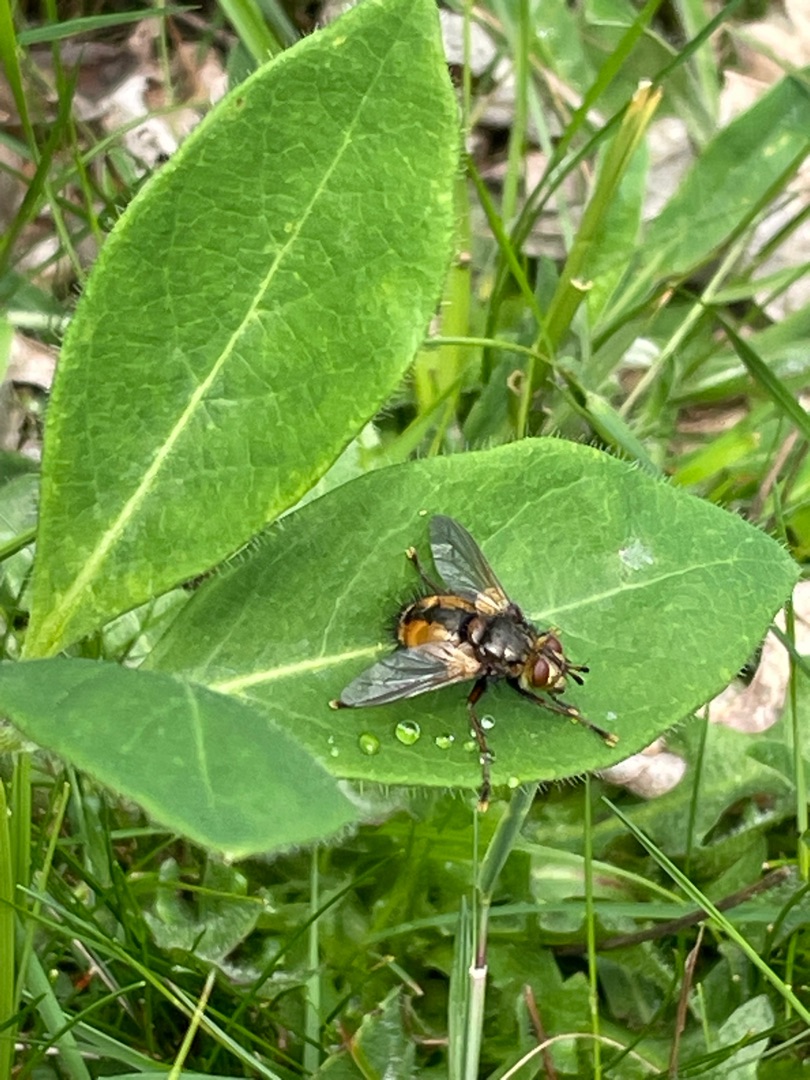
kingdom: Animalia
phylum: Arthropoda
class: Insecta
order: Diptera
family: Tachinidae
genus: Tachina
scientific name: Tachina fera
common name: Mellemfluen oskar
